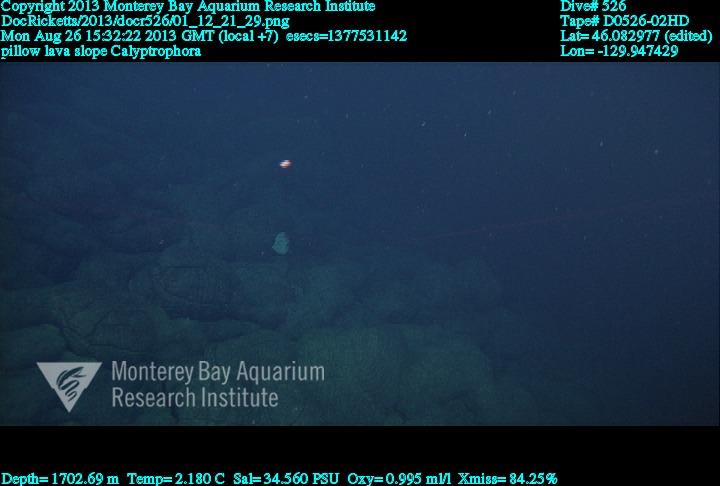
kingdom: Animalia
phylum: Cnidaria
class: Anthozoa
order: Scleralcyonacea
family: Primnoidae
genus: Calyptrophora
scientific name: Calyptrophora
